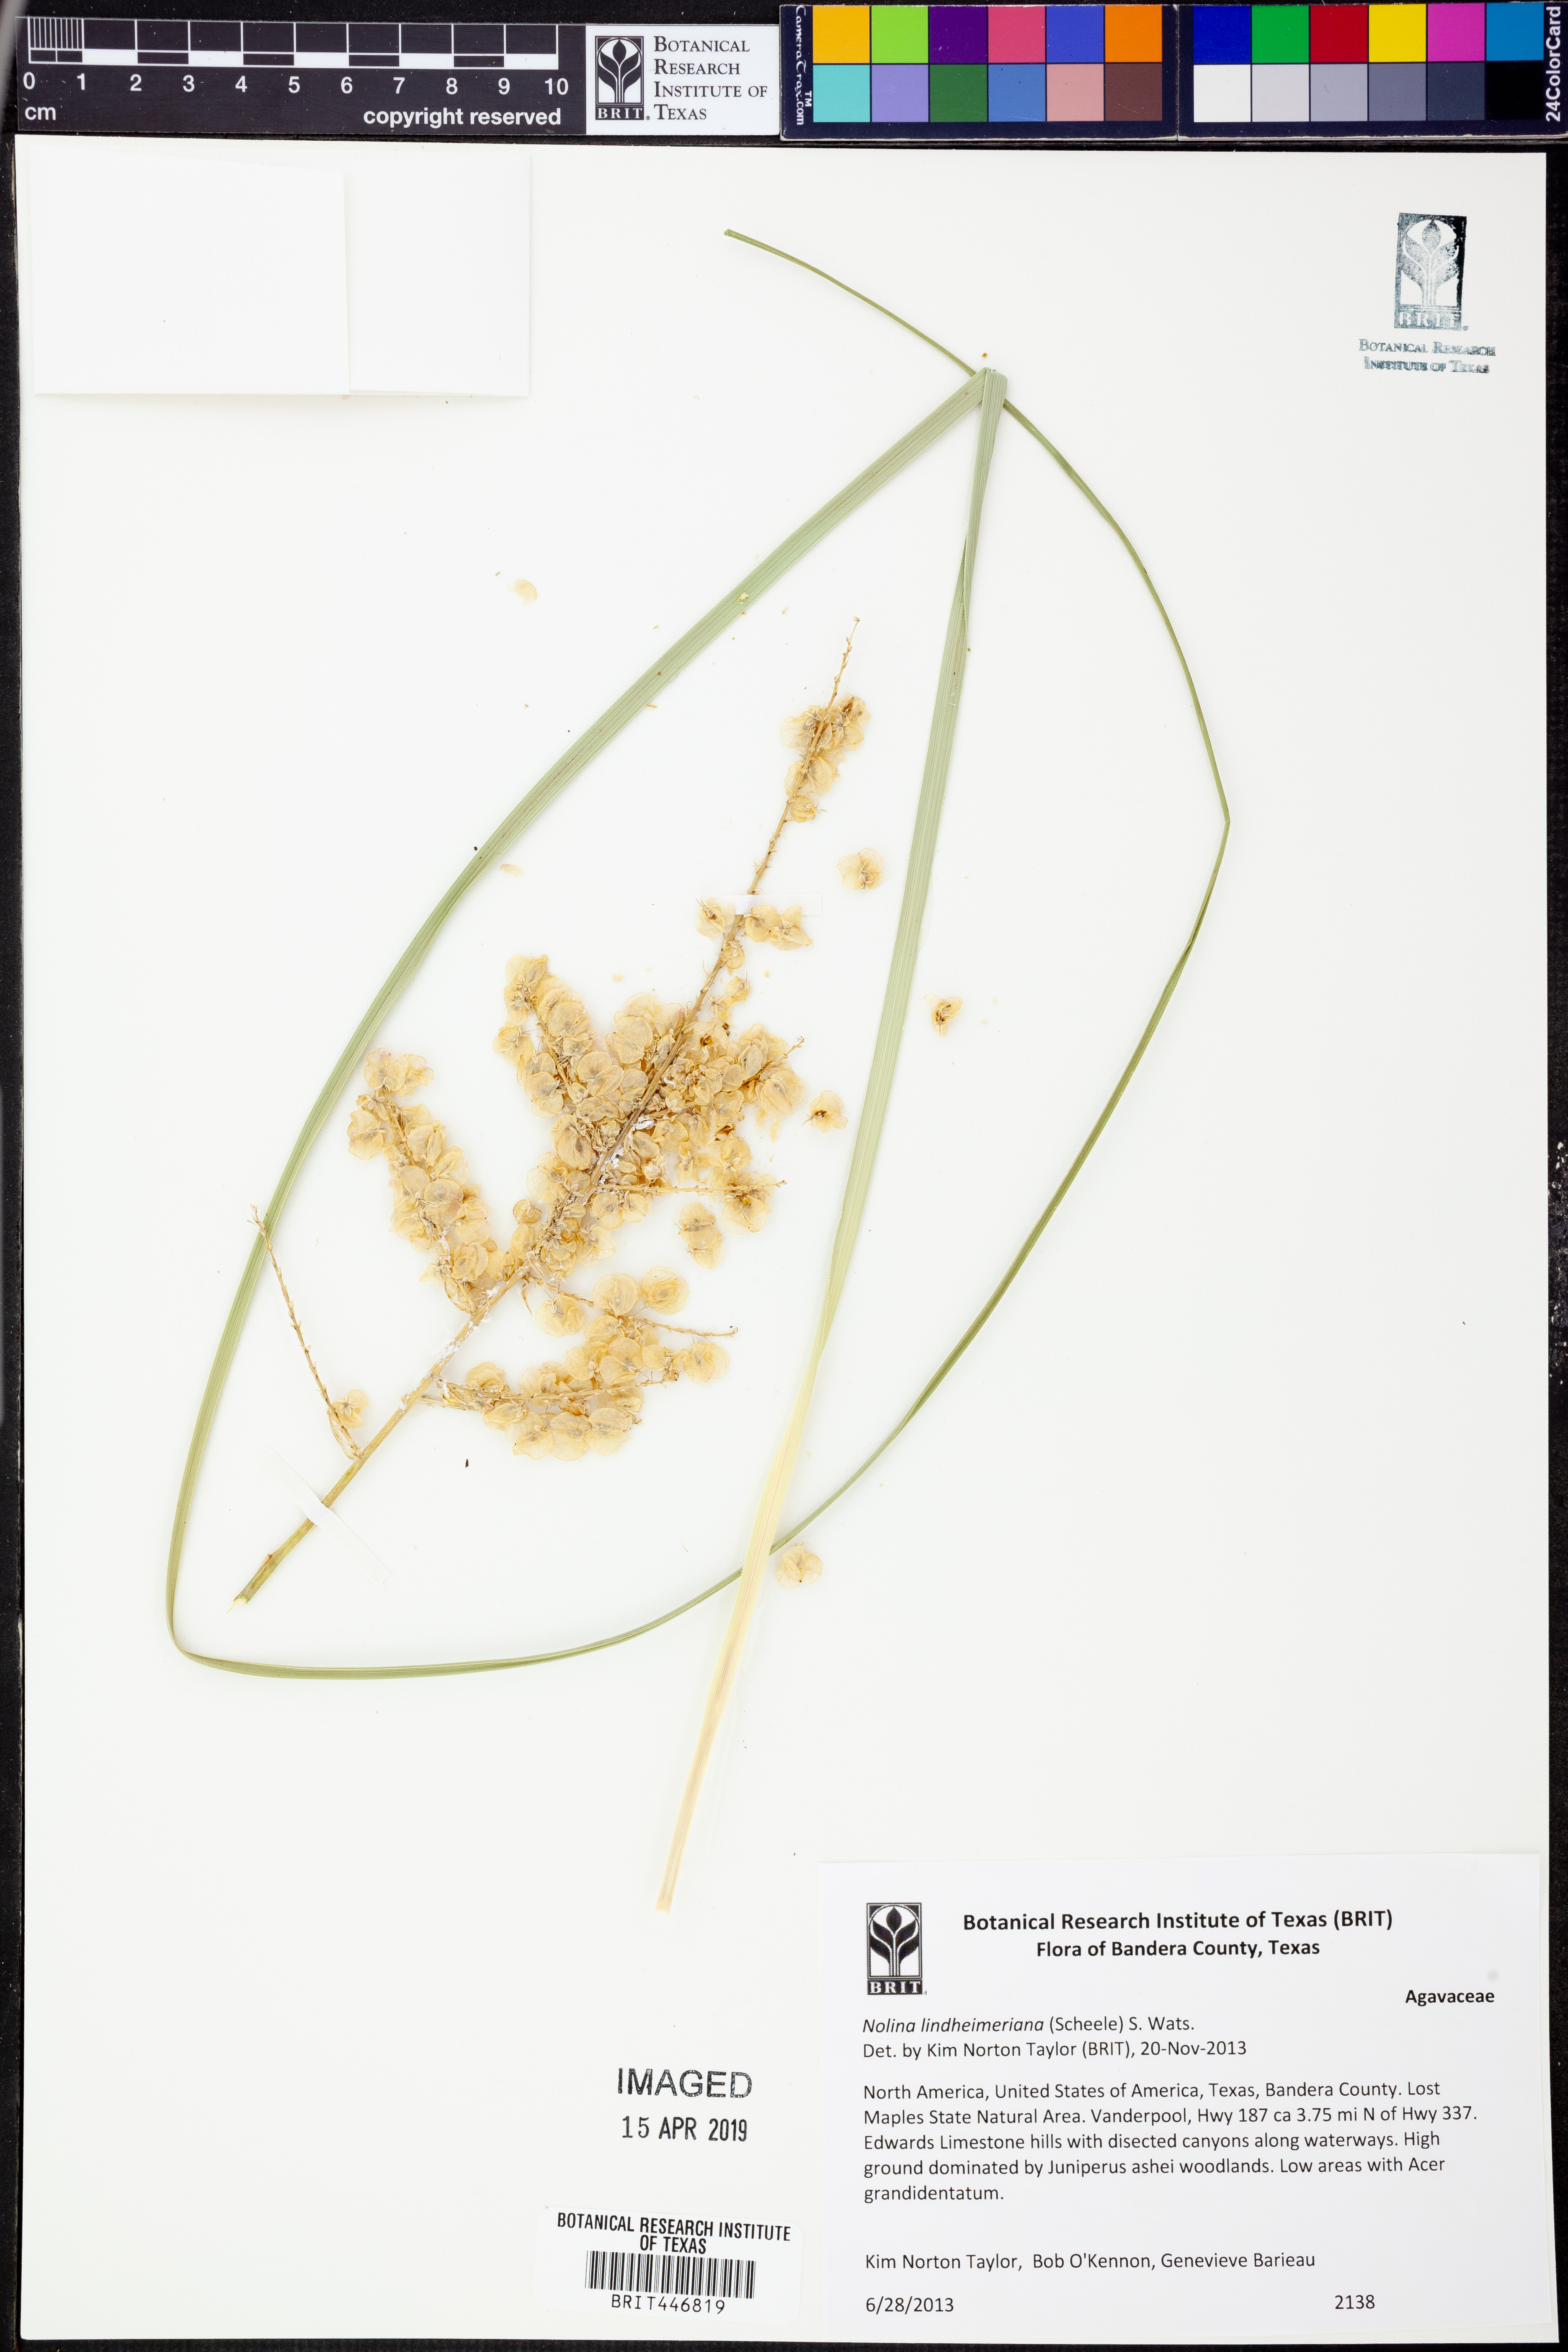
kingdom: Plantae
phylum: Tracheophyta
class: Liliopsida
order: Asparagales
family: Asparagaceae
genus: Nolina
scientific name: Nolina lindheimeriana
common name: Lindheimer's bear-grass
